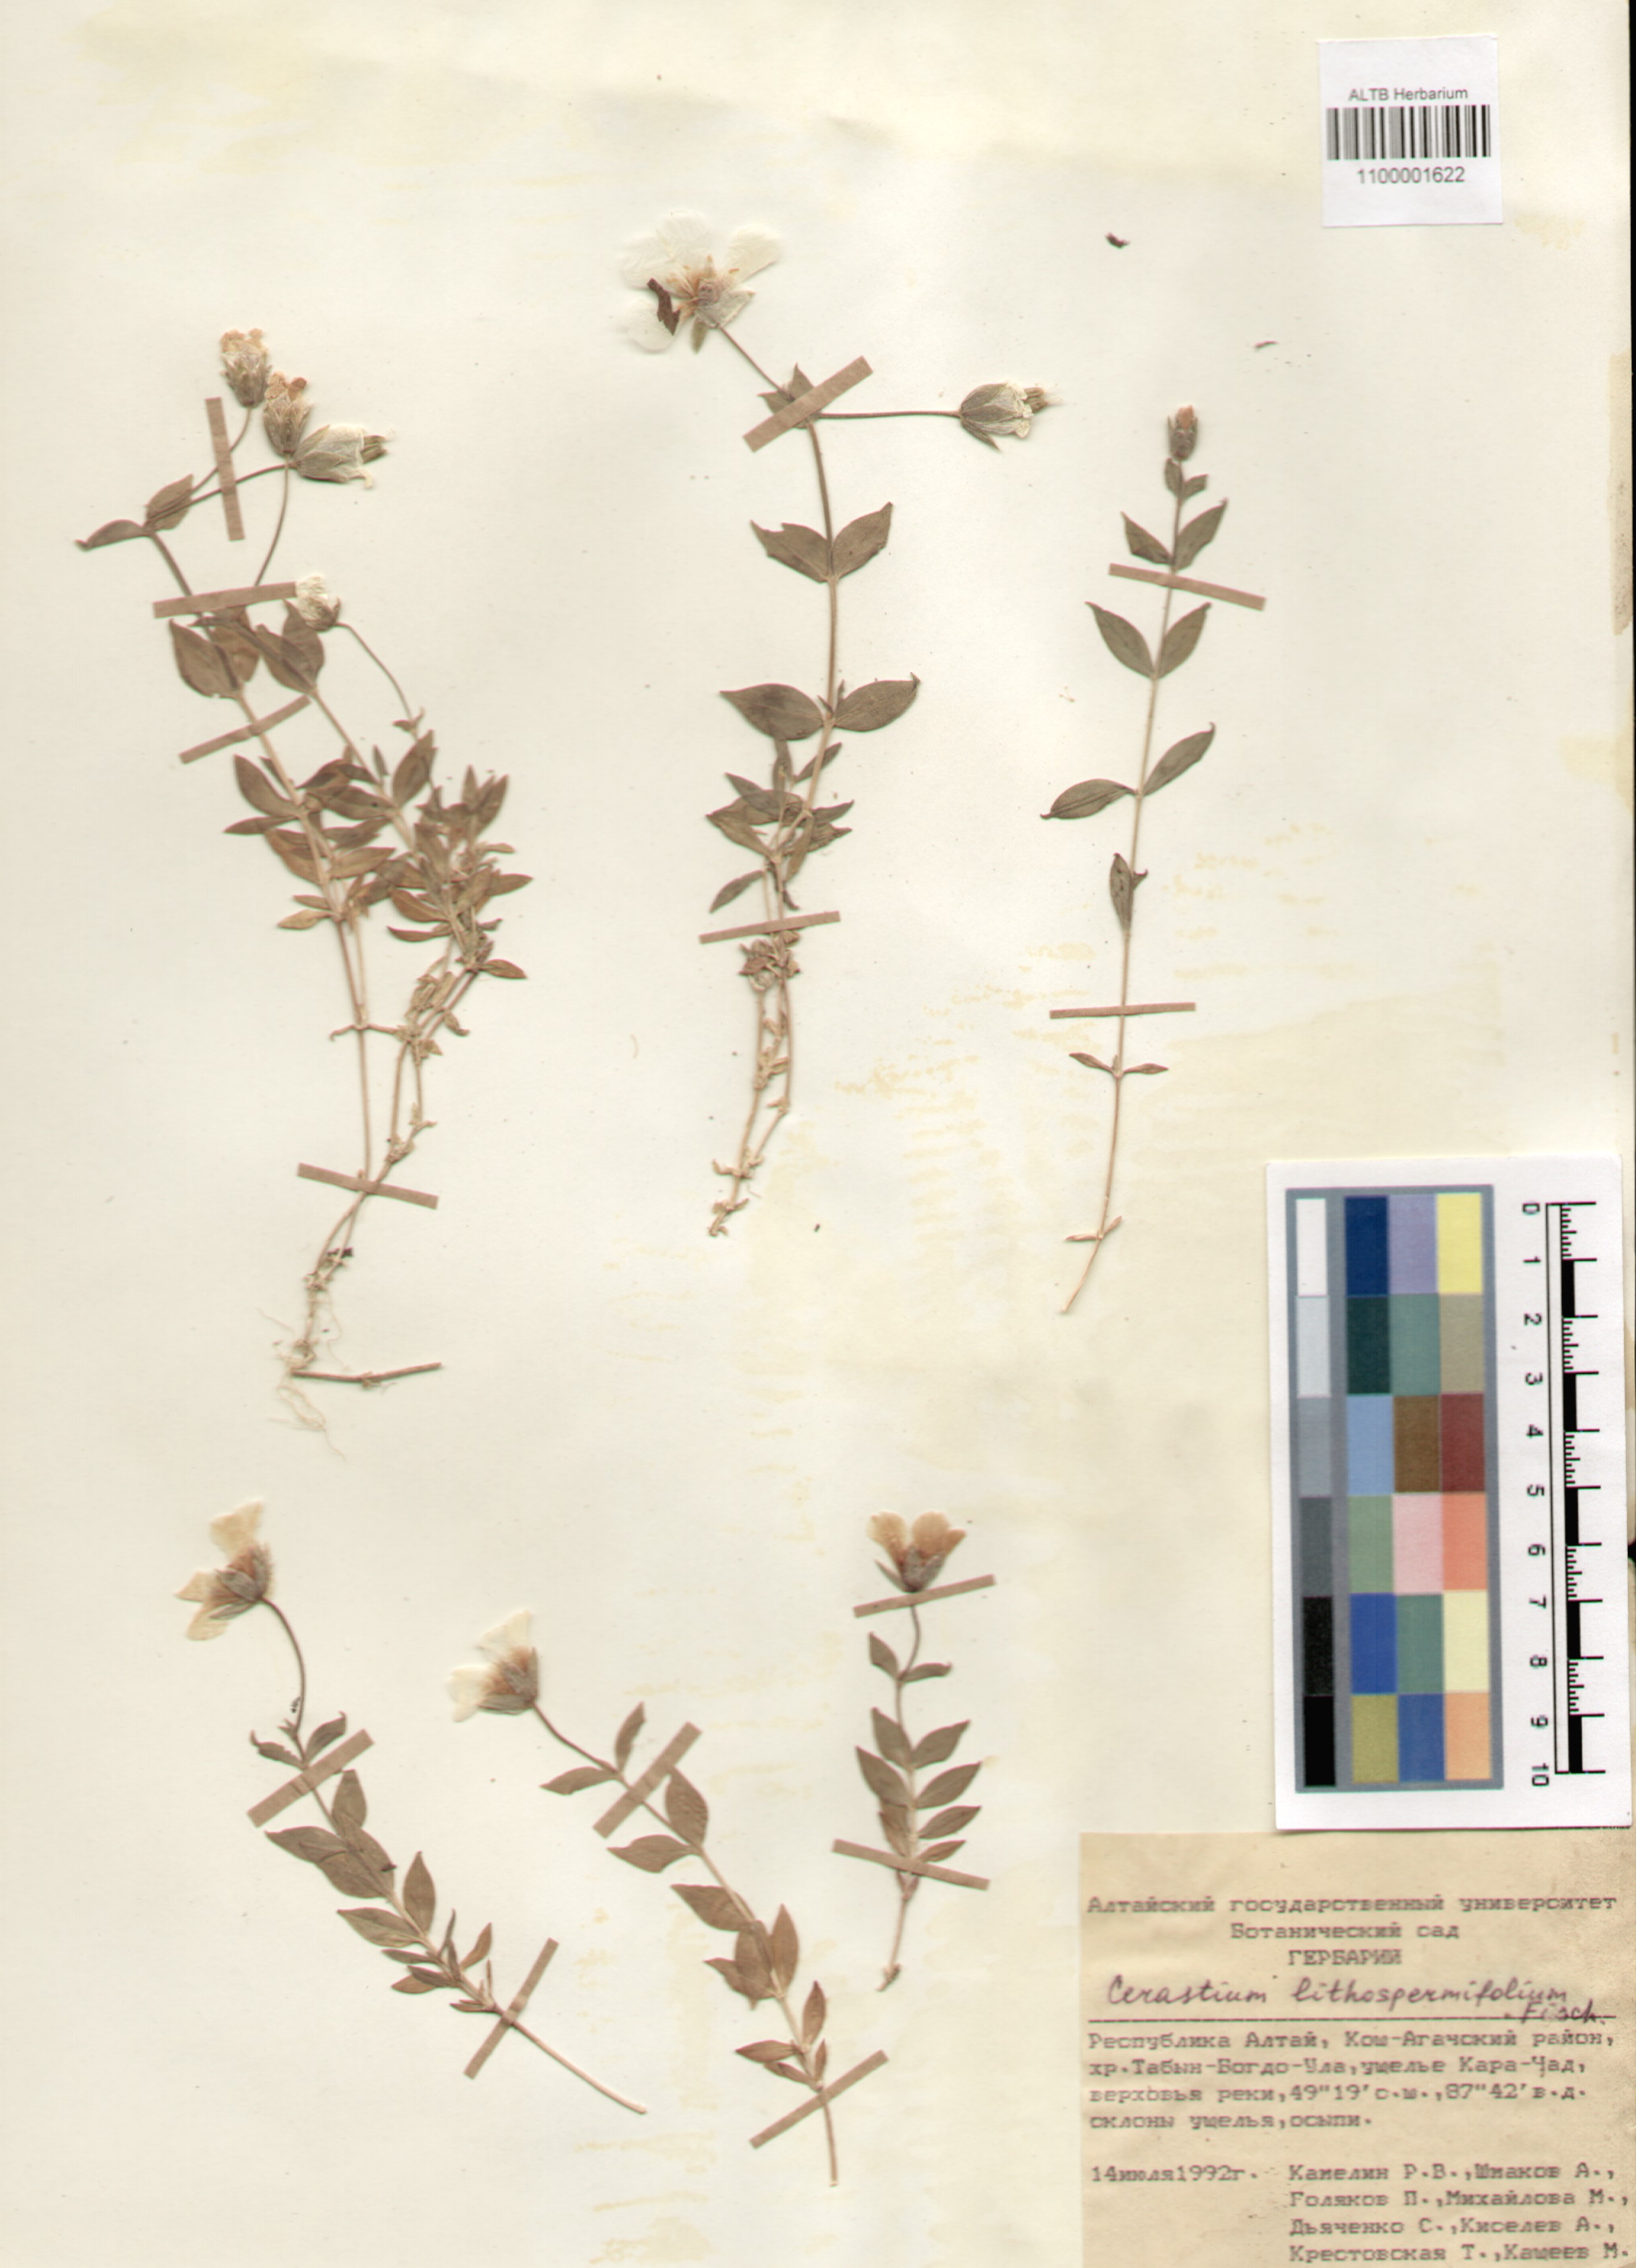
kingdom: Plantae
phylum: Tracheophyta
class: Magnoliopsida
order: Caryophyllales
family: Caryophyllaceae
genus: Cerastium
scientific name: Cerastium lithospermifolium
